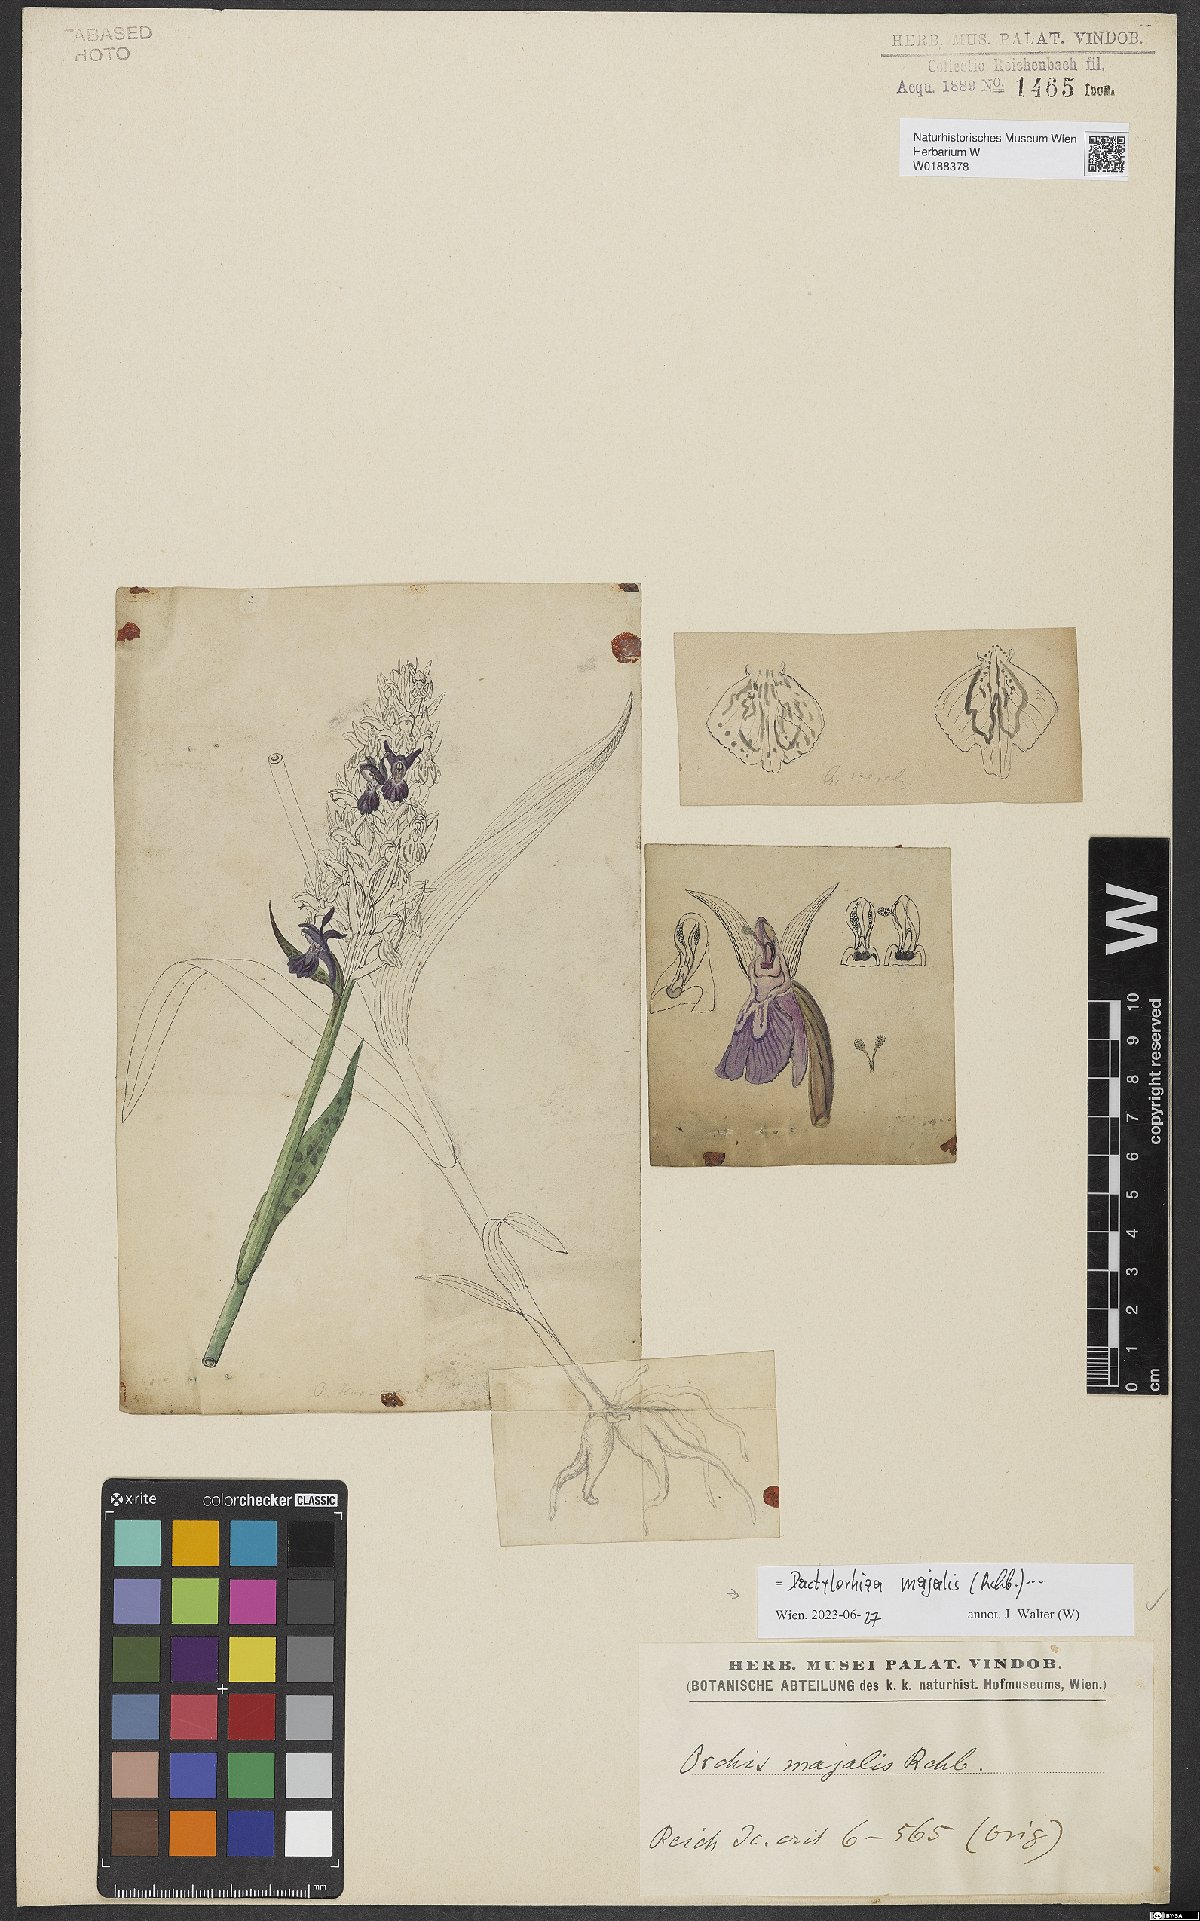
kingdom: Plantae
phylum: Tracheophyta
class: Liliopsida
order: Asparagales
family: Orchidaceae
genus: Dactylorhiza
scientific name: Dactylorhiza majalis
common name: Marsh orchid
